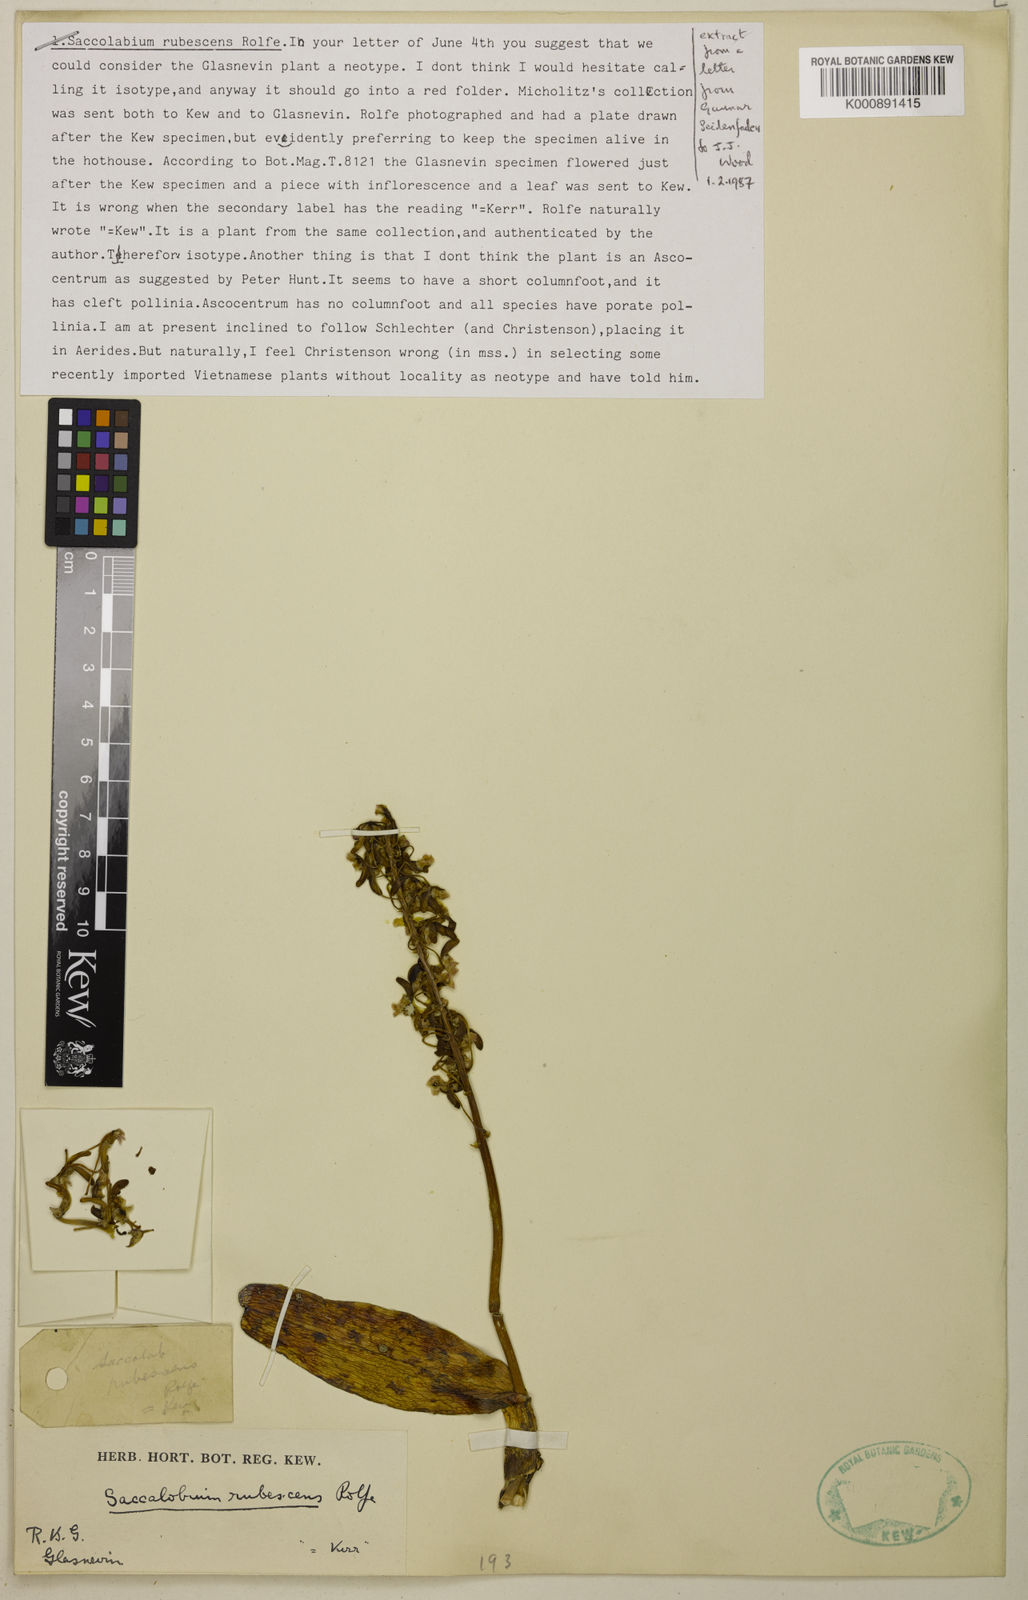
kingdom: Plantae
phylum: Tracheophyta
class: Liliopsida
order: Asparagales
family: Orchidaceae
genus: Aerides
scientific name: Aerides rubescens
